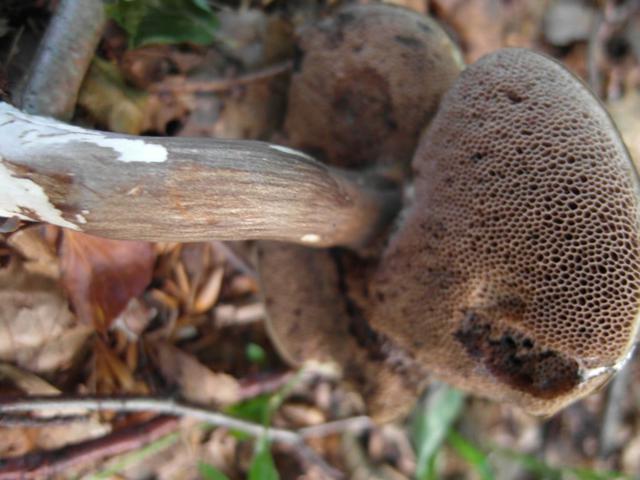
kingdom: Fungi
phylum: Basidiomycota
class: Agaricomycetes
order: Boletales
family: Boletaceae
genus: Porphyrellus
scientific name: Porphyrellus porphyrosporus
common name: sodrørhat
